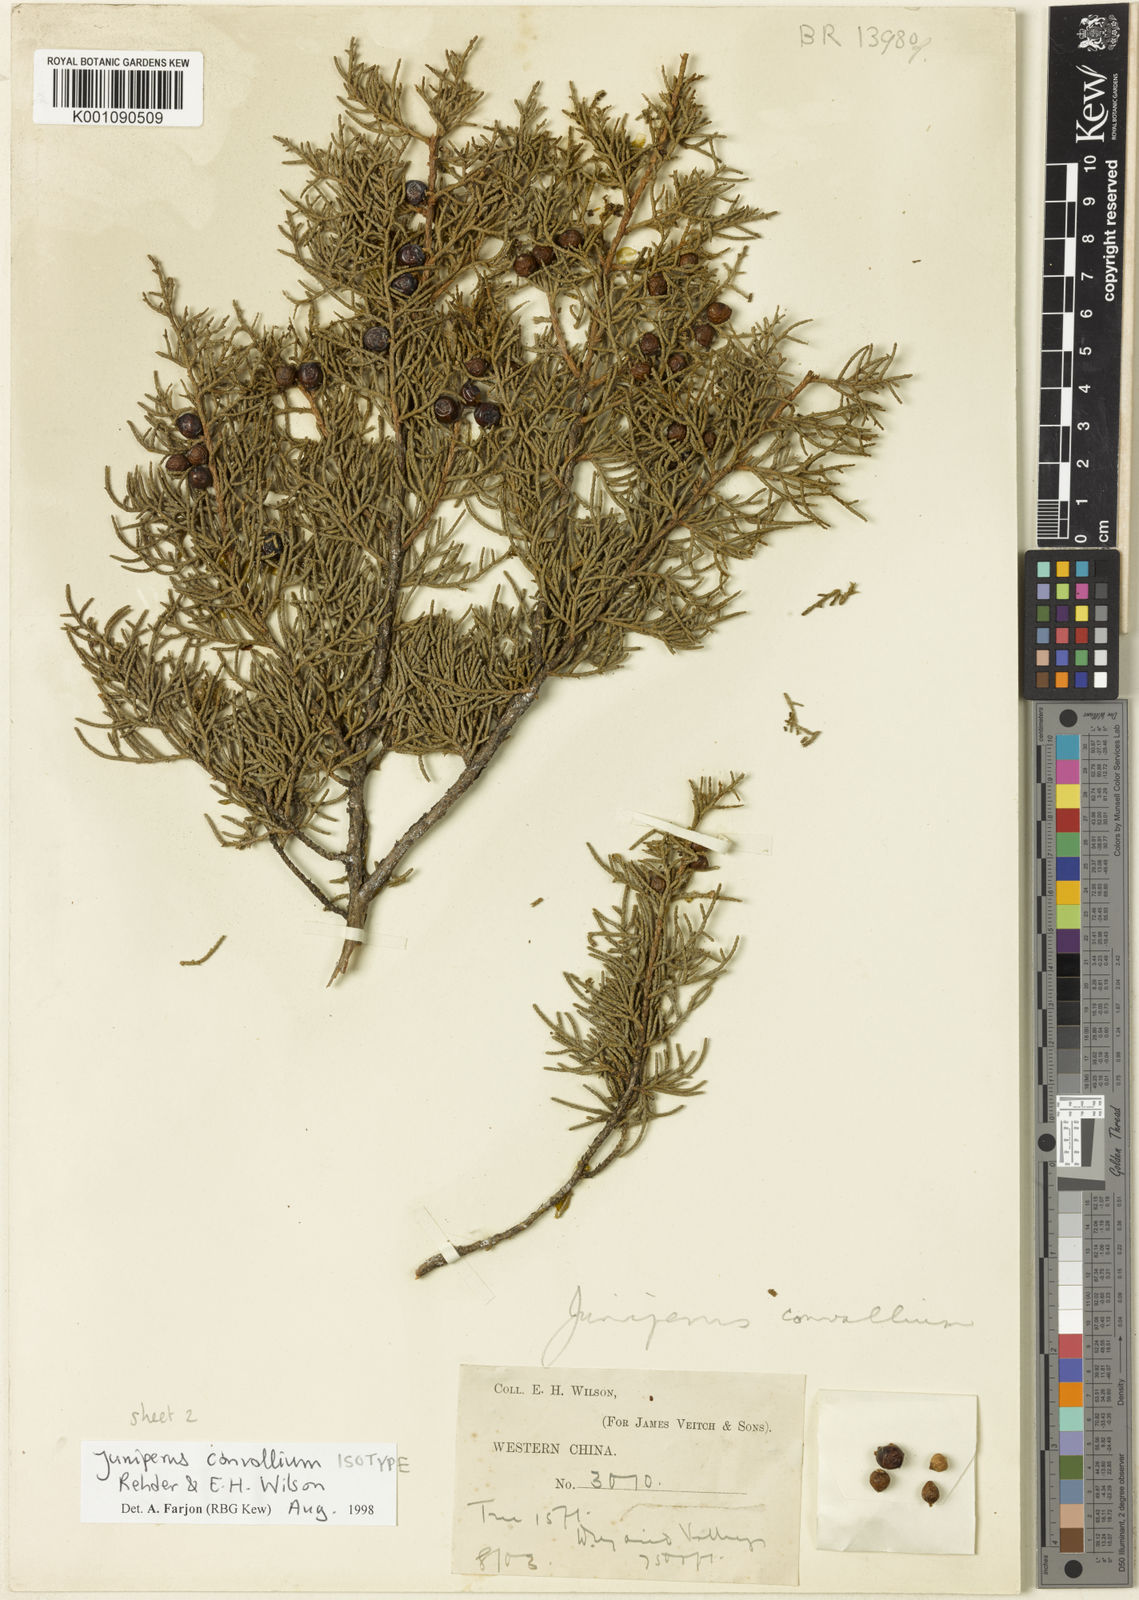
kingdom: Plantae
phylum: Tracheophyta
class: Pinopsida
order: Pinales
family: Cupressaceae
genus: Juniperus
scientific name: Juniperus convallium
